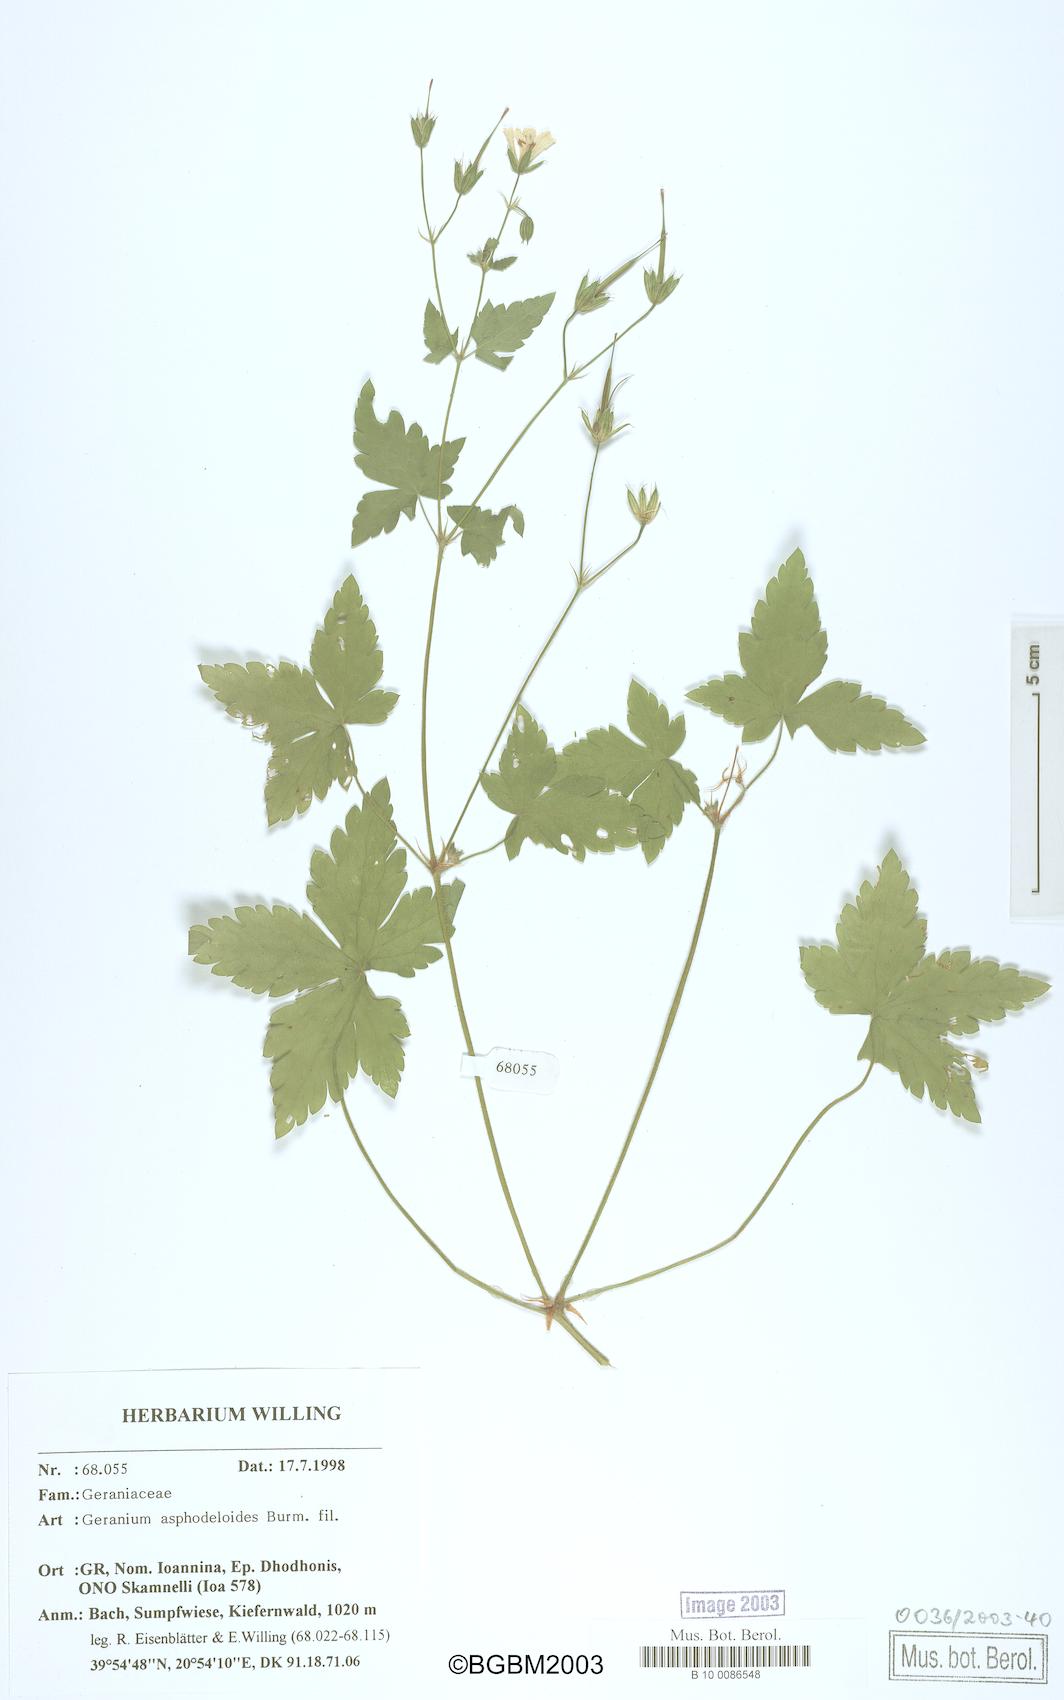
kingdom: Plantae
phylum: Tracheophyta
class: Magnoliopsida
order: Geraniales
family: Geraniaceae
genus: Geranium
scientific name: Geranium asphodeloides
